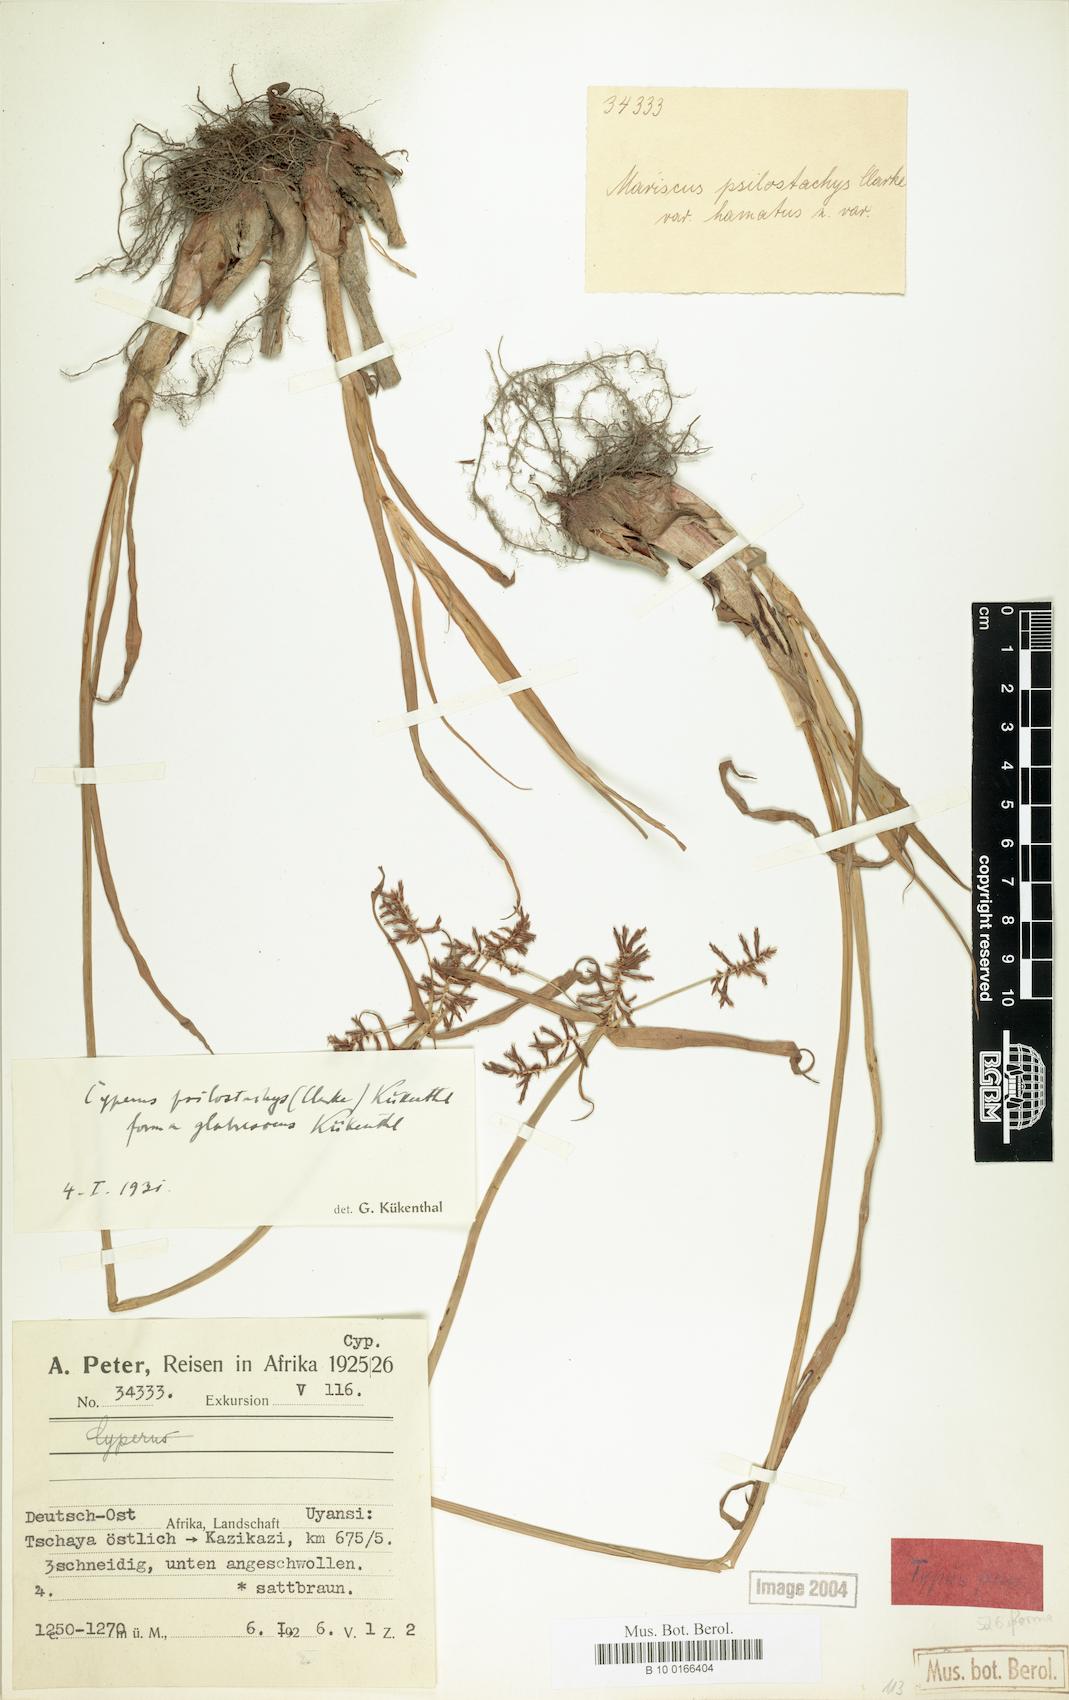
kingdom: Plantae
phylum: Tracheophyta
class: Liliopsida
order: Poales
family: Cyperaceae
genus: Cyperus
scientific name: Cyperus trigonellus
